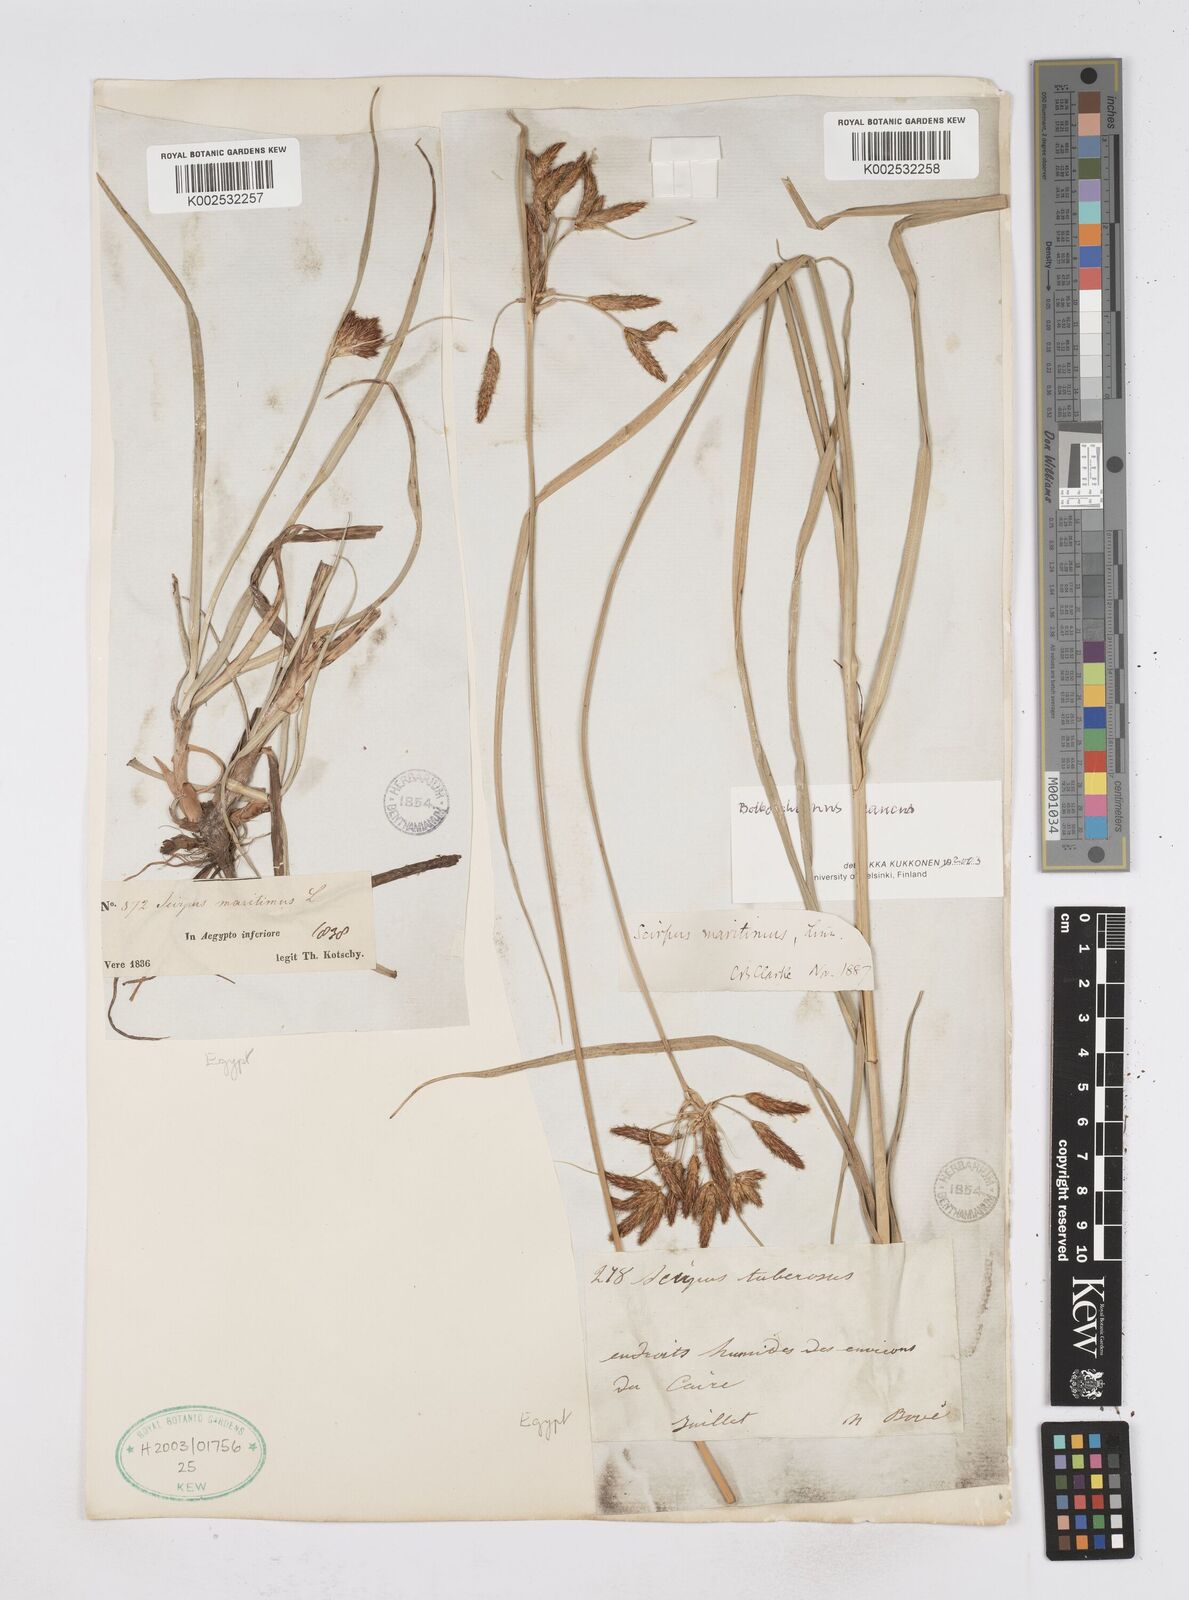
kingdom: Plantae
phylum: Tracheophyta
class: Liliopsida
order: Poales
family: Cyperaceae
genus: Bolboschoenus
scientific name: Bolboschoenus maritimus
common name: Sea club-rush
